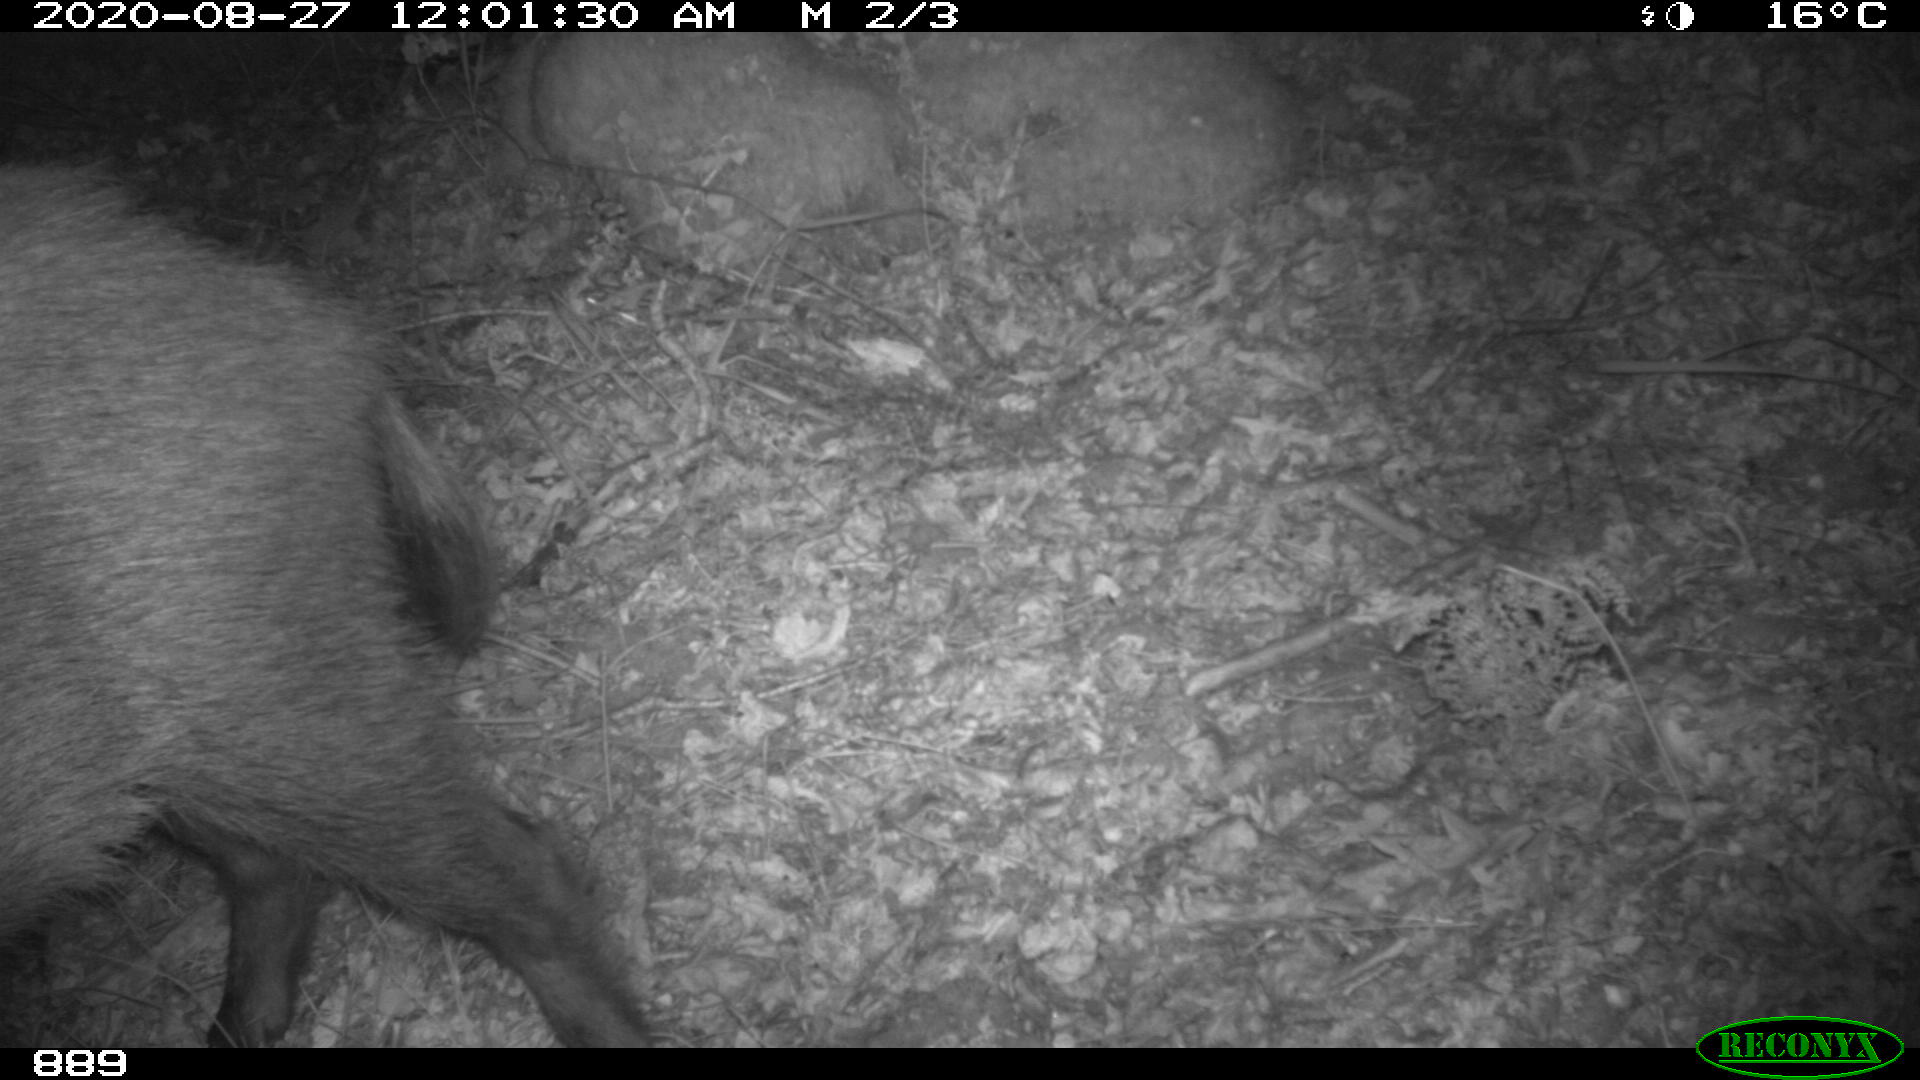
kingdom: Animalia
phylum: Chordata
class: Mammalia
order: Artiodactyla
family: Suidae
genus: Sus
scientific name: Sus scrofa
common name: Wild boar
